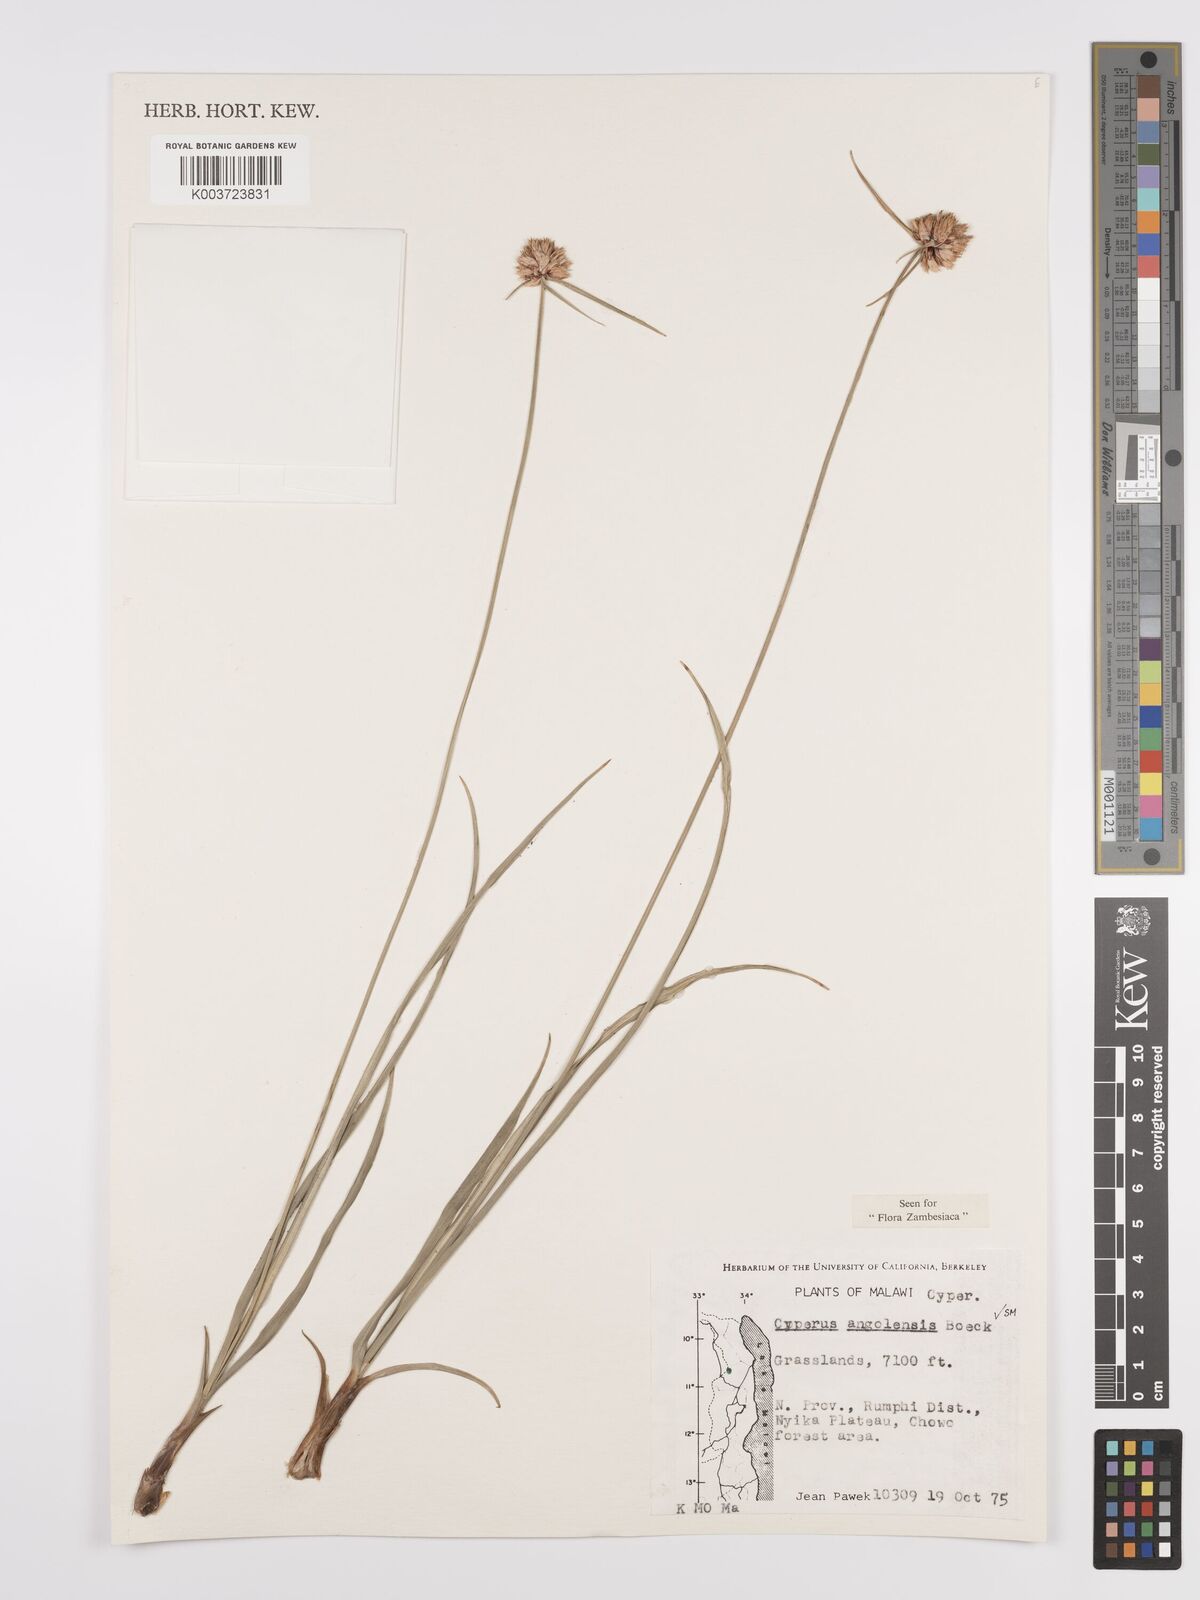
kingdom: Plantae
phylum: Tracheophyta
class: Liliopsida
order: Poales
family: Cyperaceae
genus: Cyperus
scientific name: Cyperus angolensis
